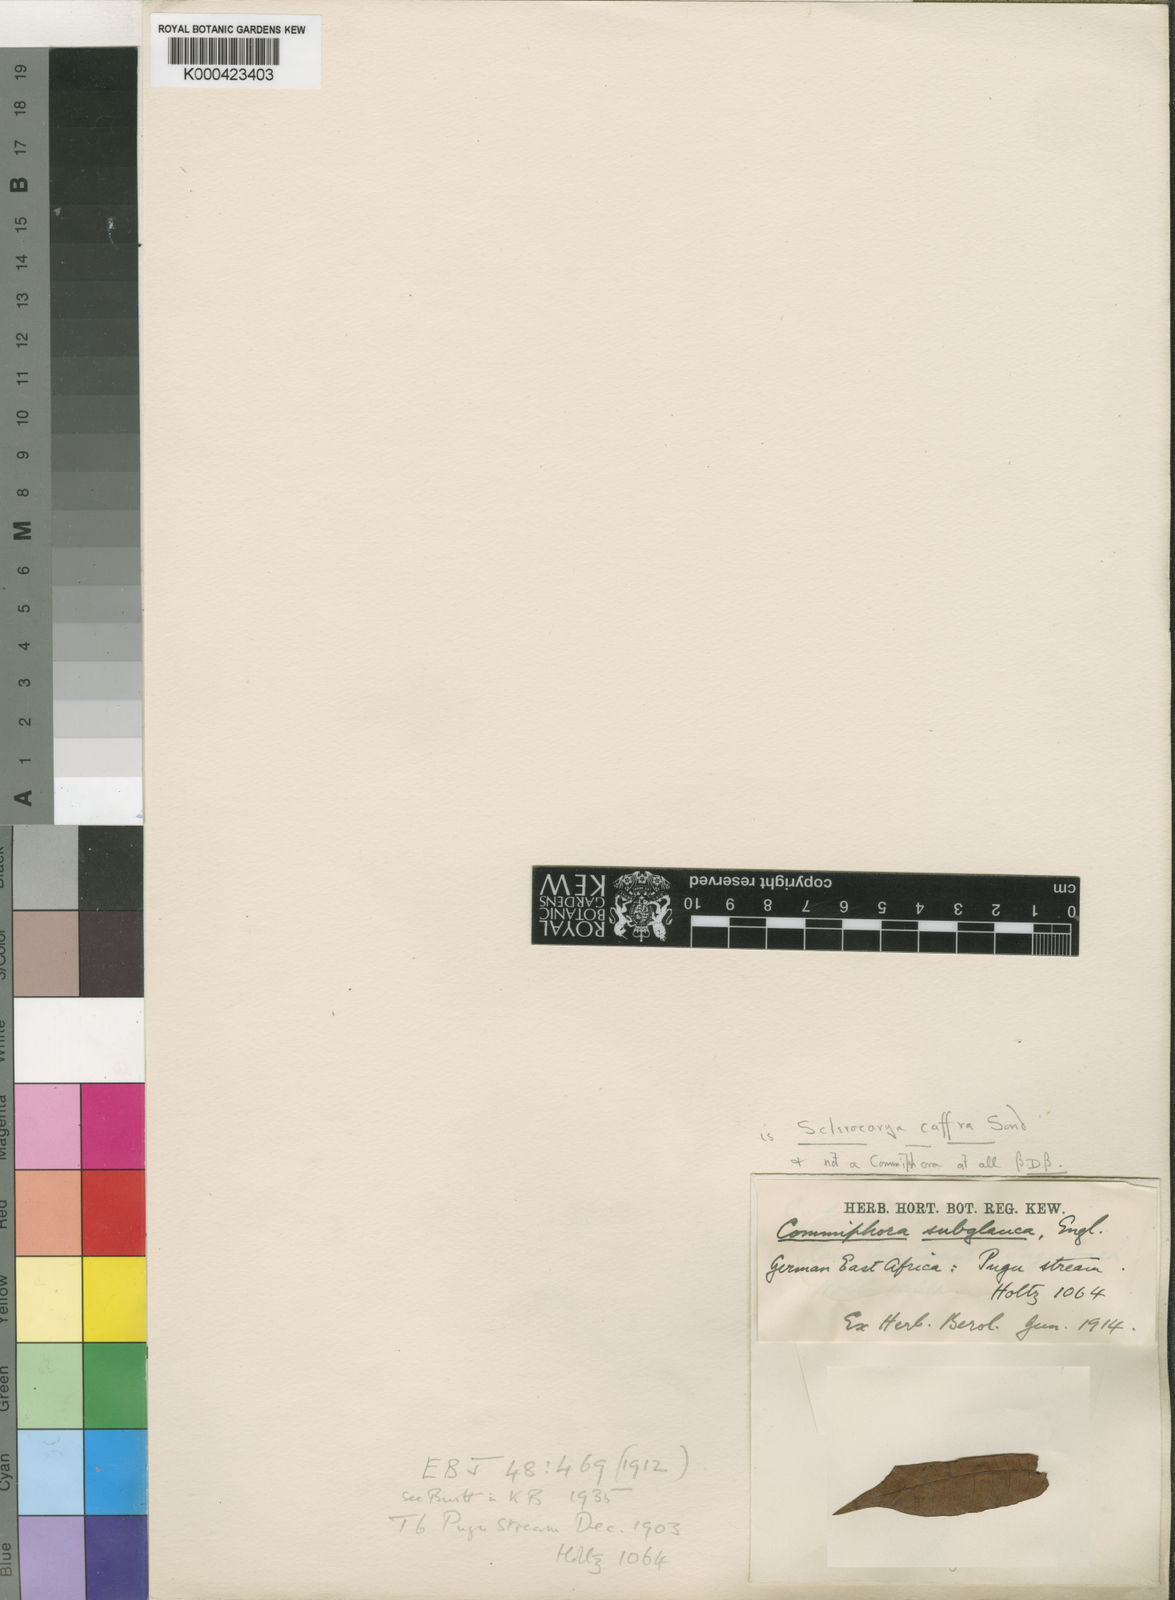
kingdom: Plantae
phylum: Tracheophyta
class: Magnoliopsida
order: Sapindales
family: Anacardiaceae
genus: Sclerocarya
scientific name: Sclerocarya birrea
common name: Marula
